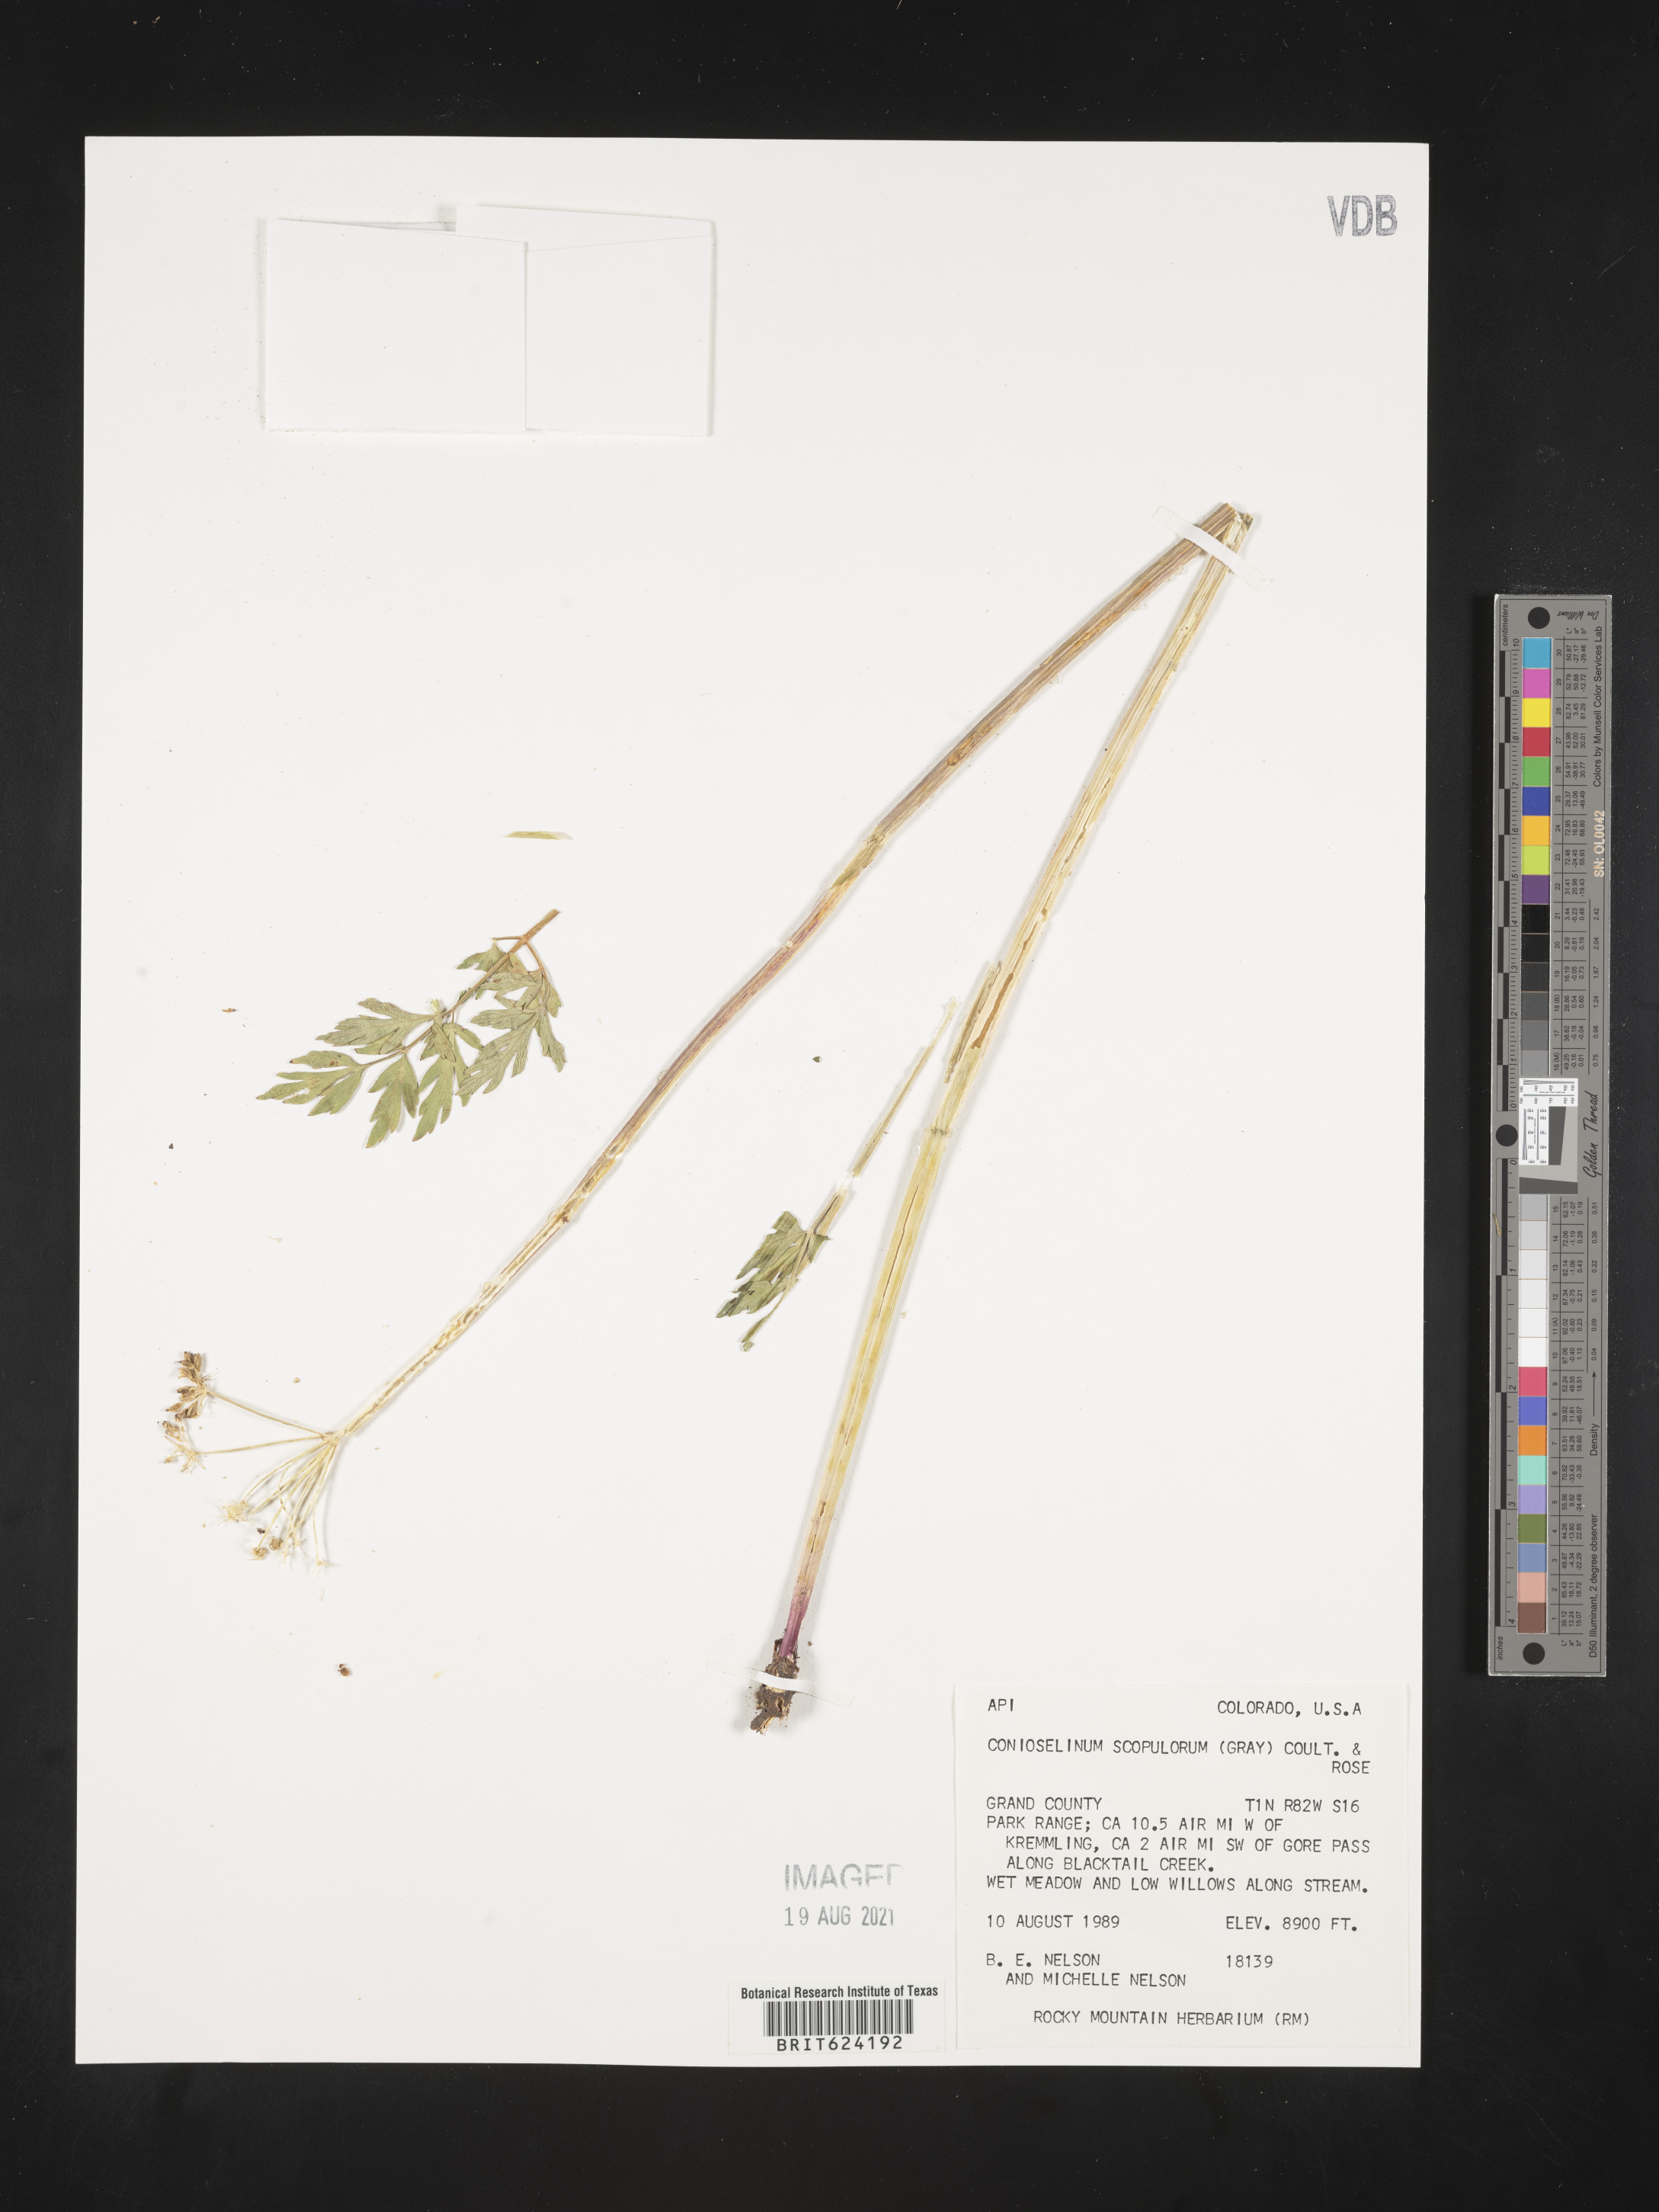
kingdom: Plantae
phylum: Tracheophyta
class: Magnoliopsida
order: Apiales
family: Apiaceae
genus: Conioselinum
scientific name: Conioselinum
